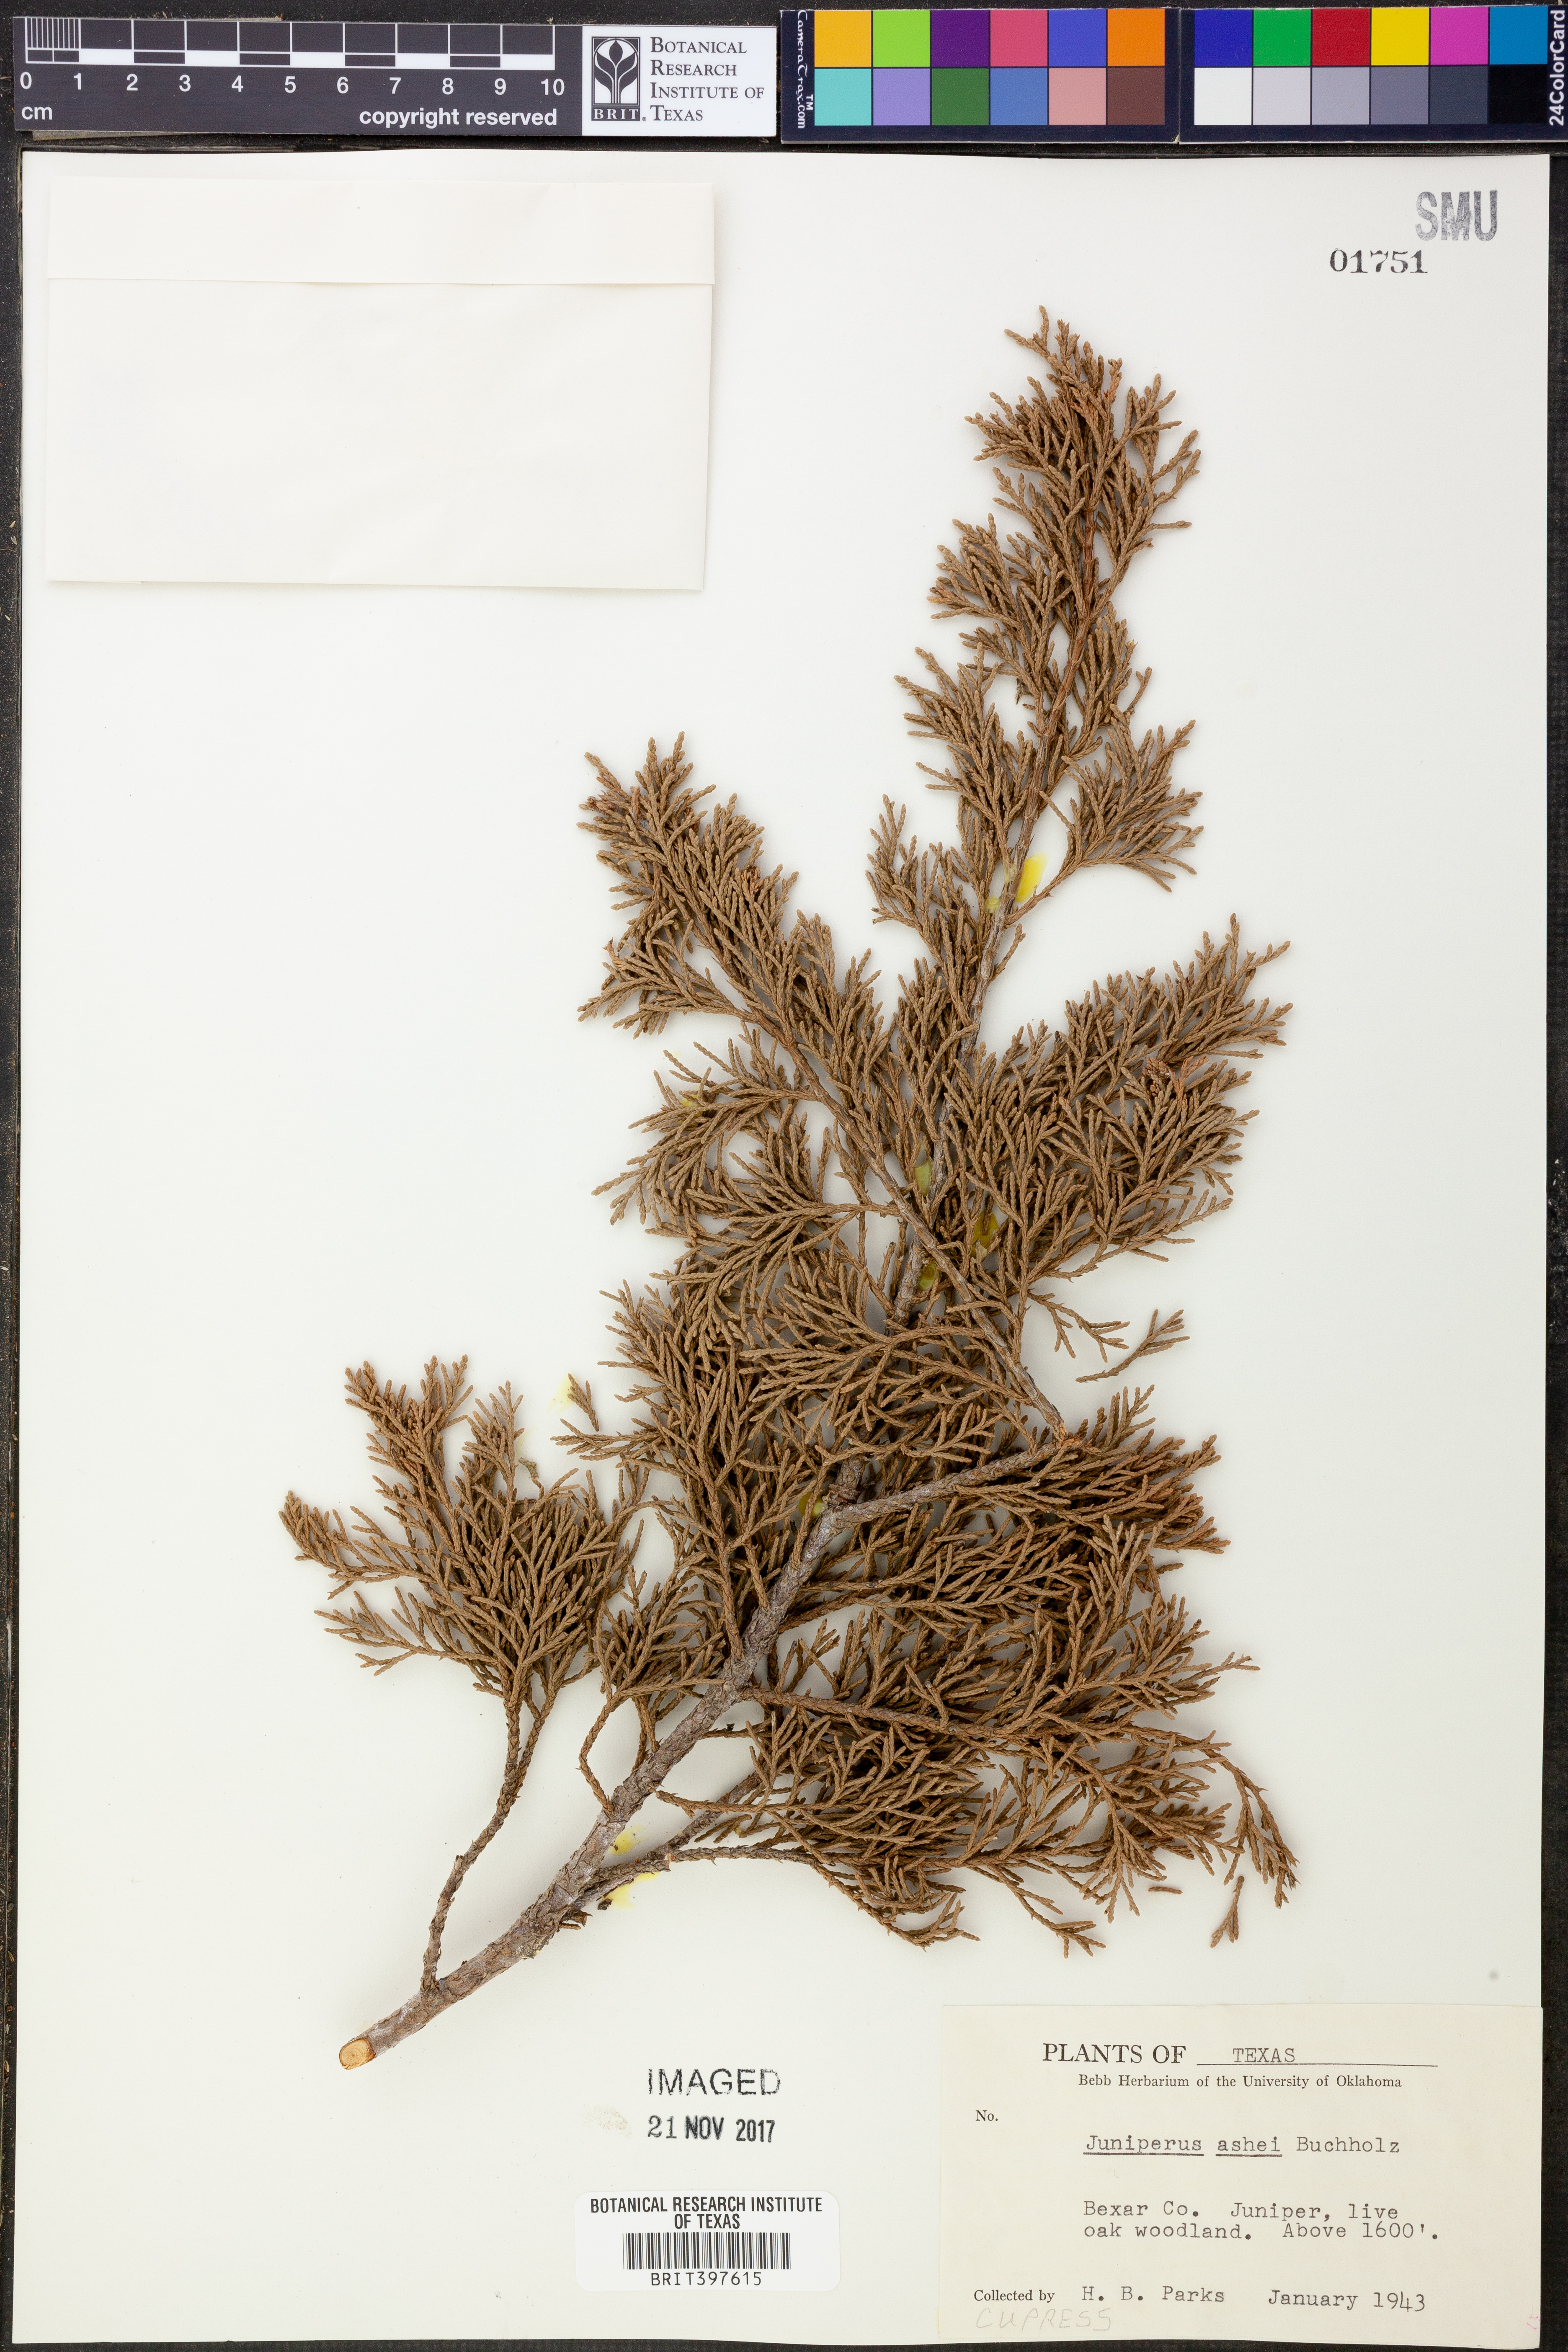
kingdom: Plantae
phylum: Tracheophyta
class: Pinopsida
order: Pinales
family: Cupressaceae
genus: Juniperus
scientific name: Juniperus ashei
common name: Mexican juniper
